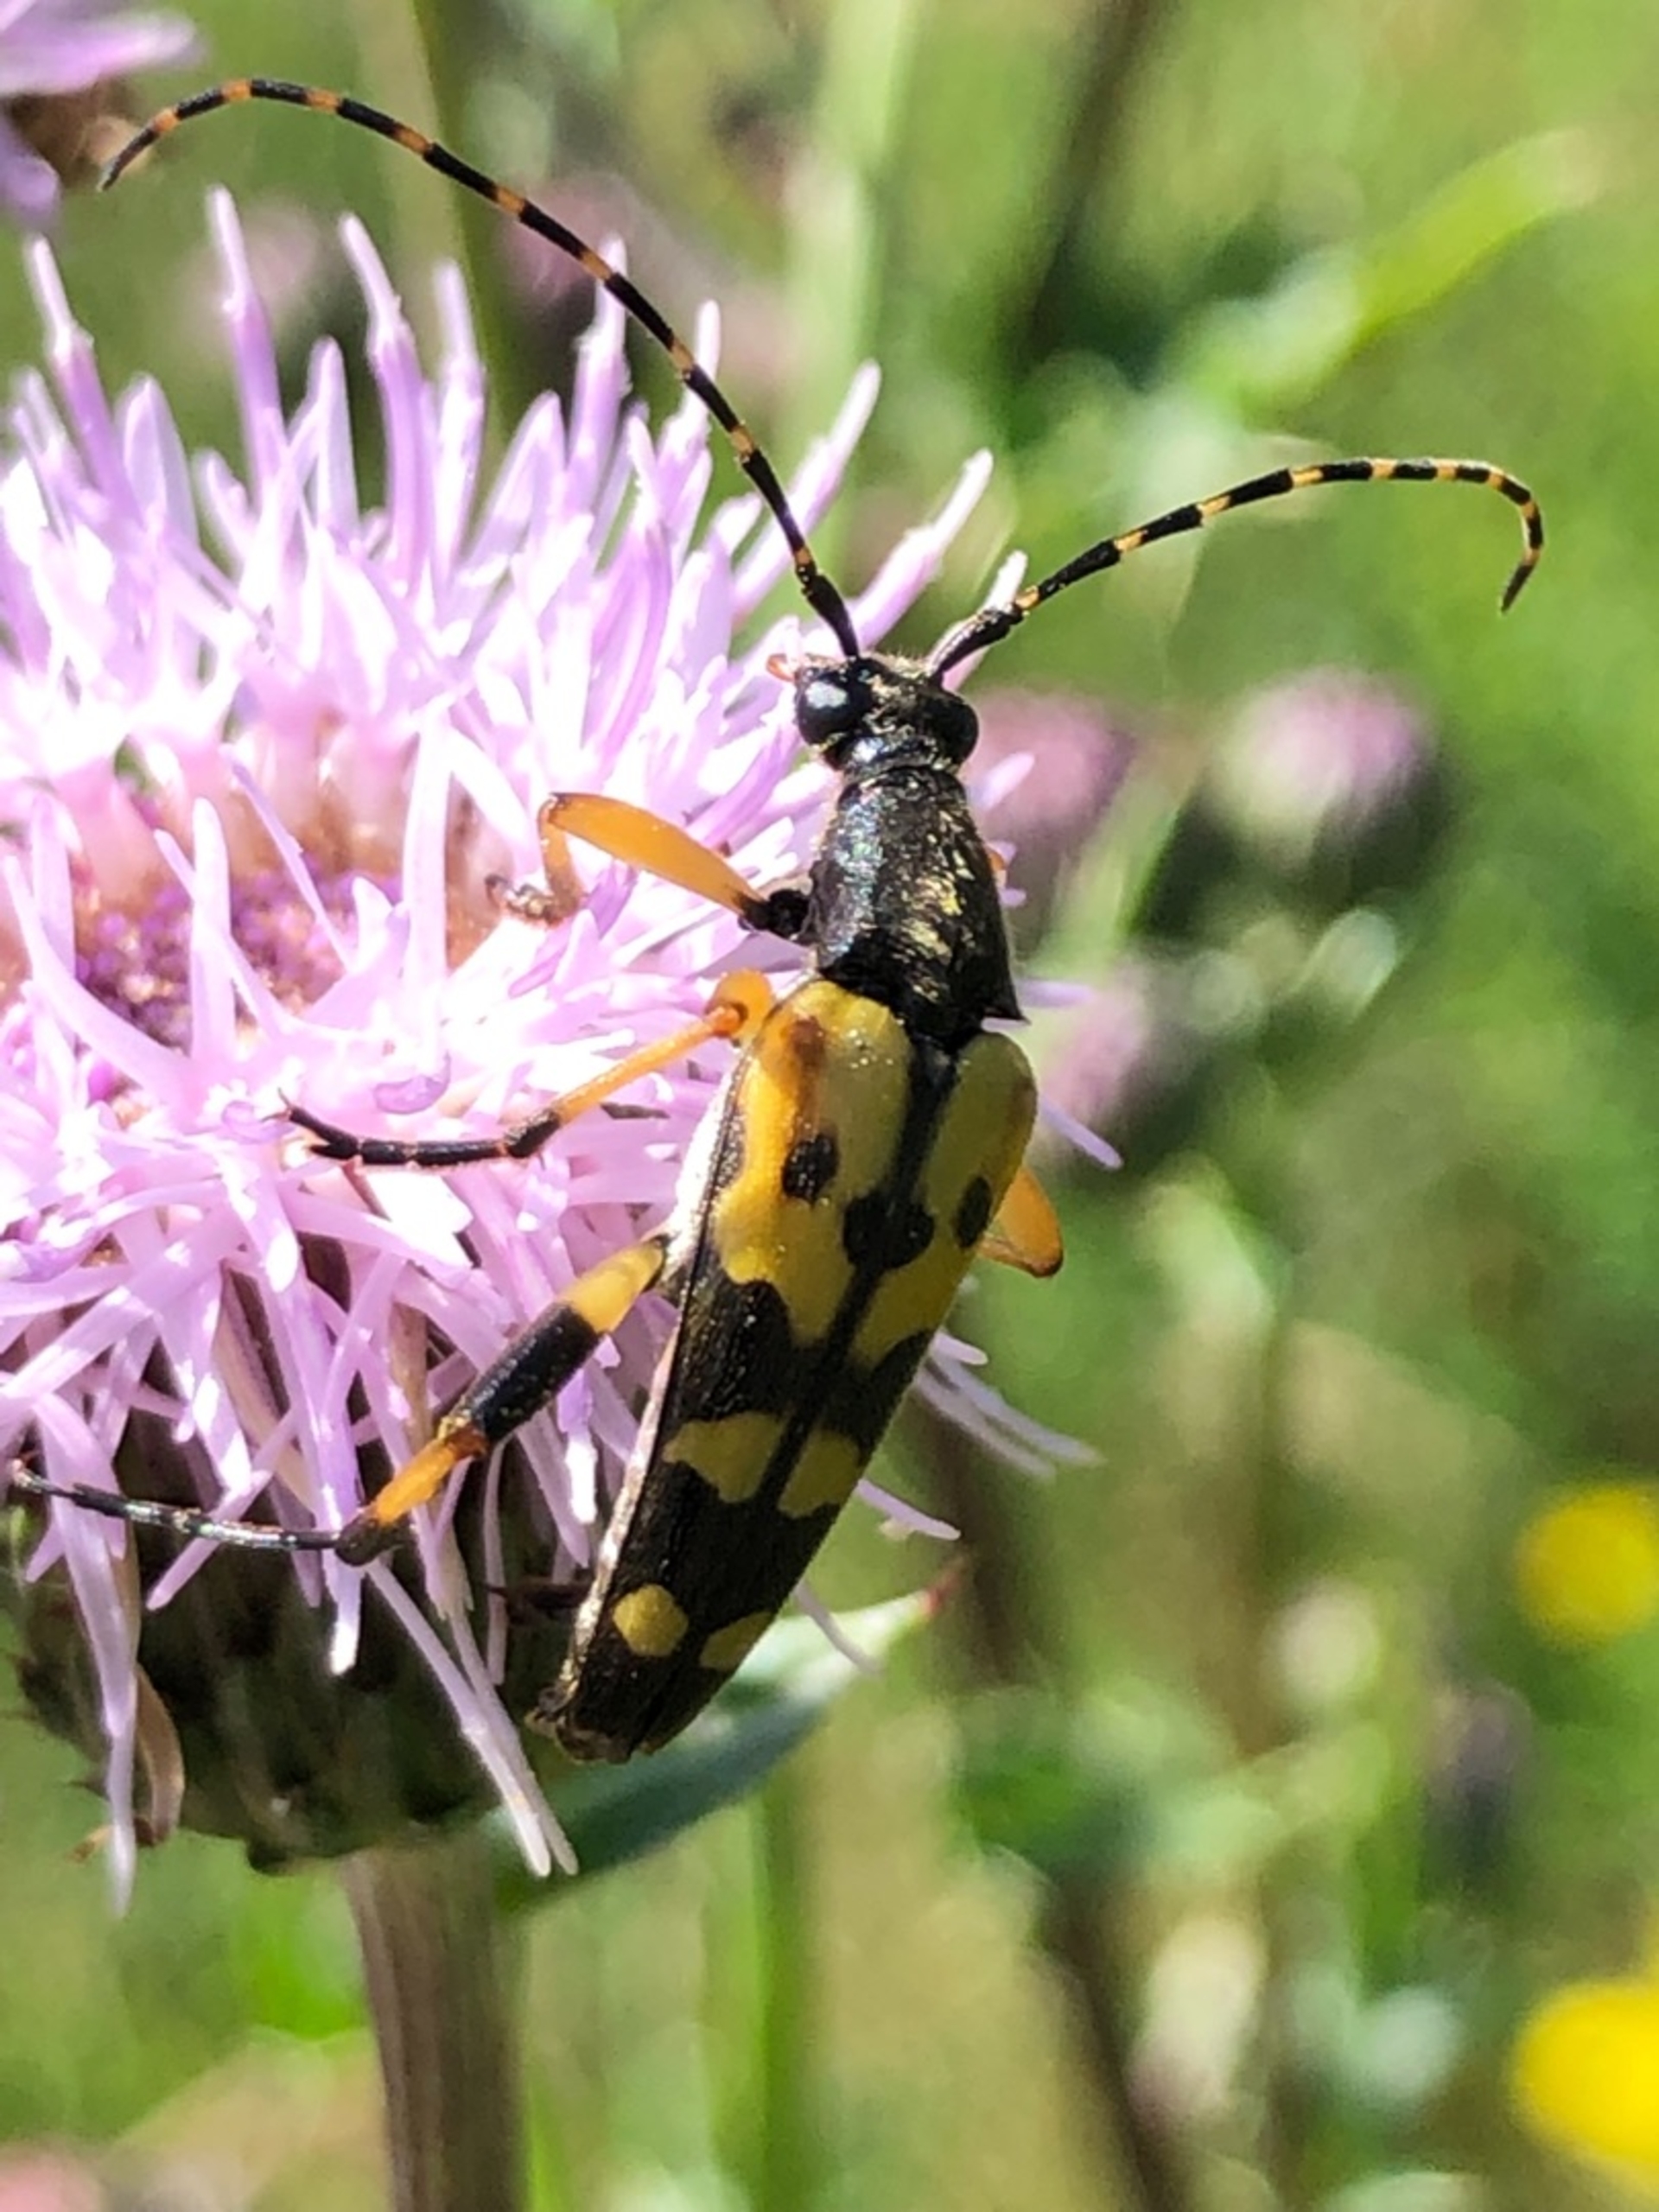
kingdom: Animalia
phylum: Arthropoda
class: Insecta
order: Coleoptera
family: Cerambycidae
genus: Rutpela
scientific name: Rutpela maculata
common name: Sydlig blomsterbuk
